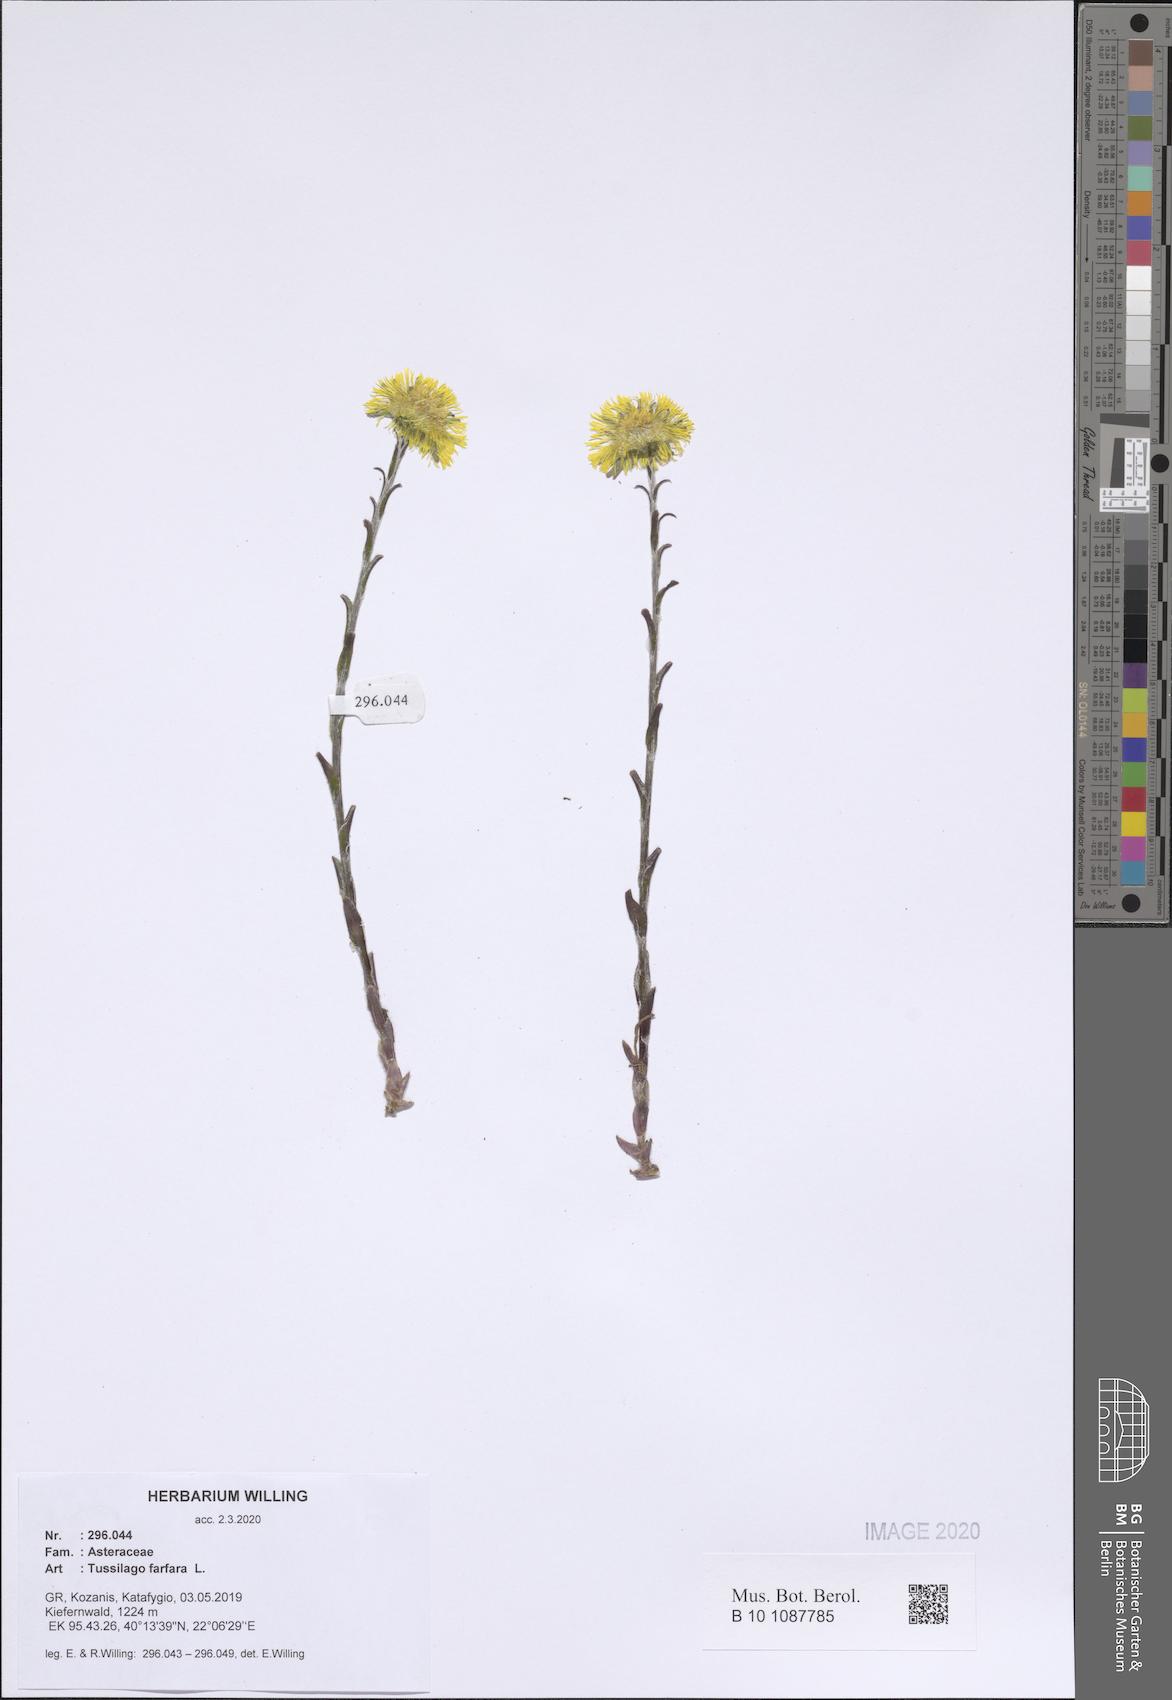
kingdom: Plantae
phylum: Tracheophyta
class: Magnoliopsida
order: Asterales
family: Asteraceae
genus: Tussilago
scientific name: Tussilago farfara
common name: Coltsfoot
